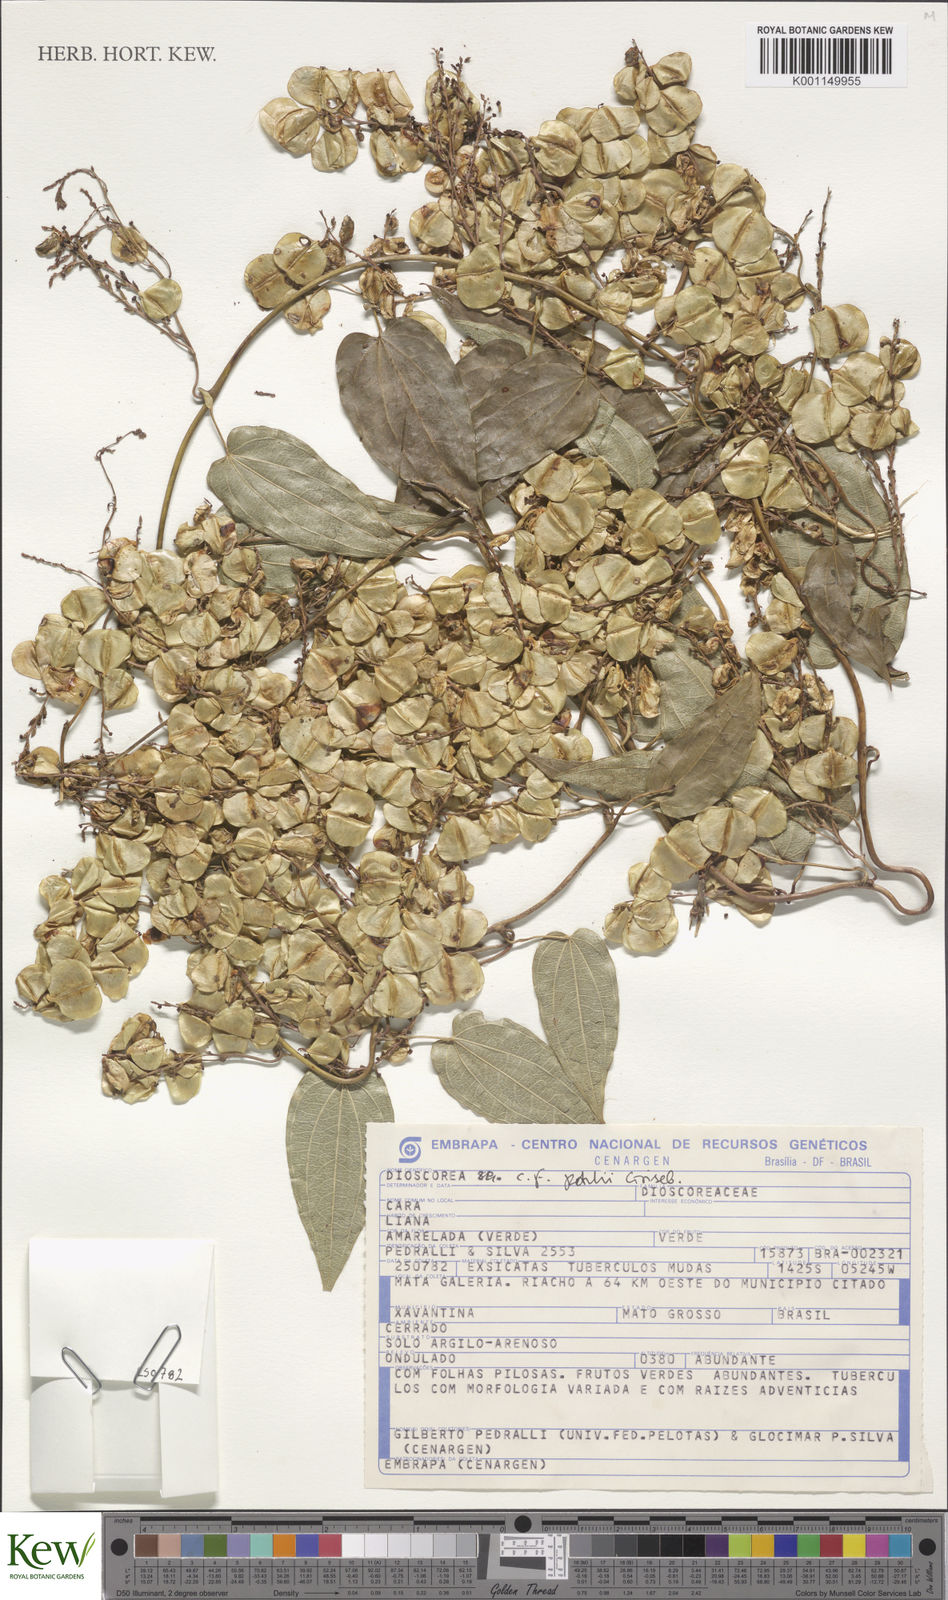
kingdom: Plantae
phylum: Tracheophyta
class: Liliopsida
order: Dioscoreales
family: Dioscoreaceae
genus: Dioscorea
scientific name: Dioscorea pohlii
